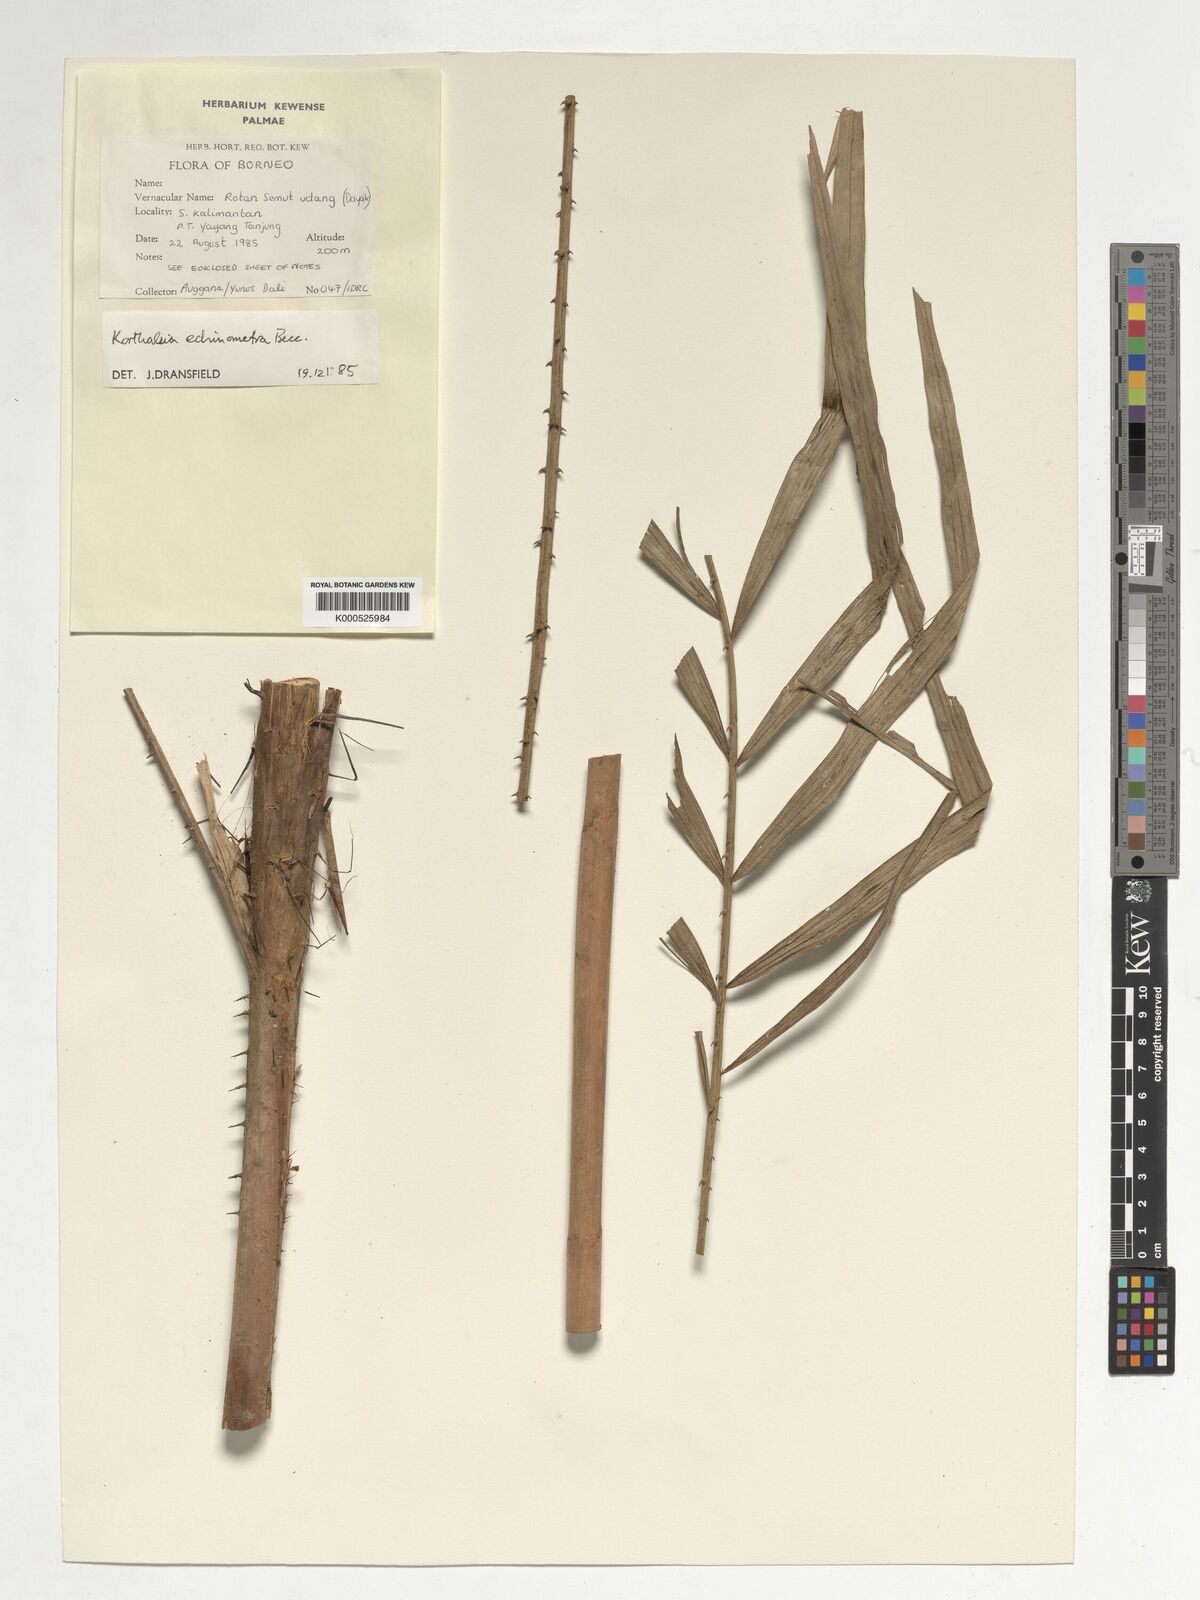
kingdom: Plantae
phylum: Tracheophyta
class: Liliopsida
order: Arecales
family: Arecaceae
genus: Korthalsia
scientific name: Korthalsia echinometra
